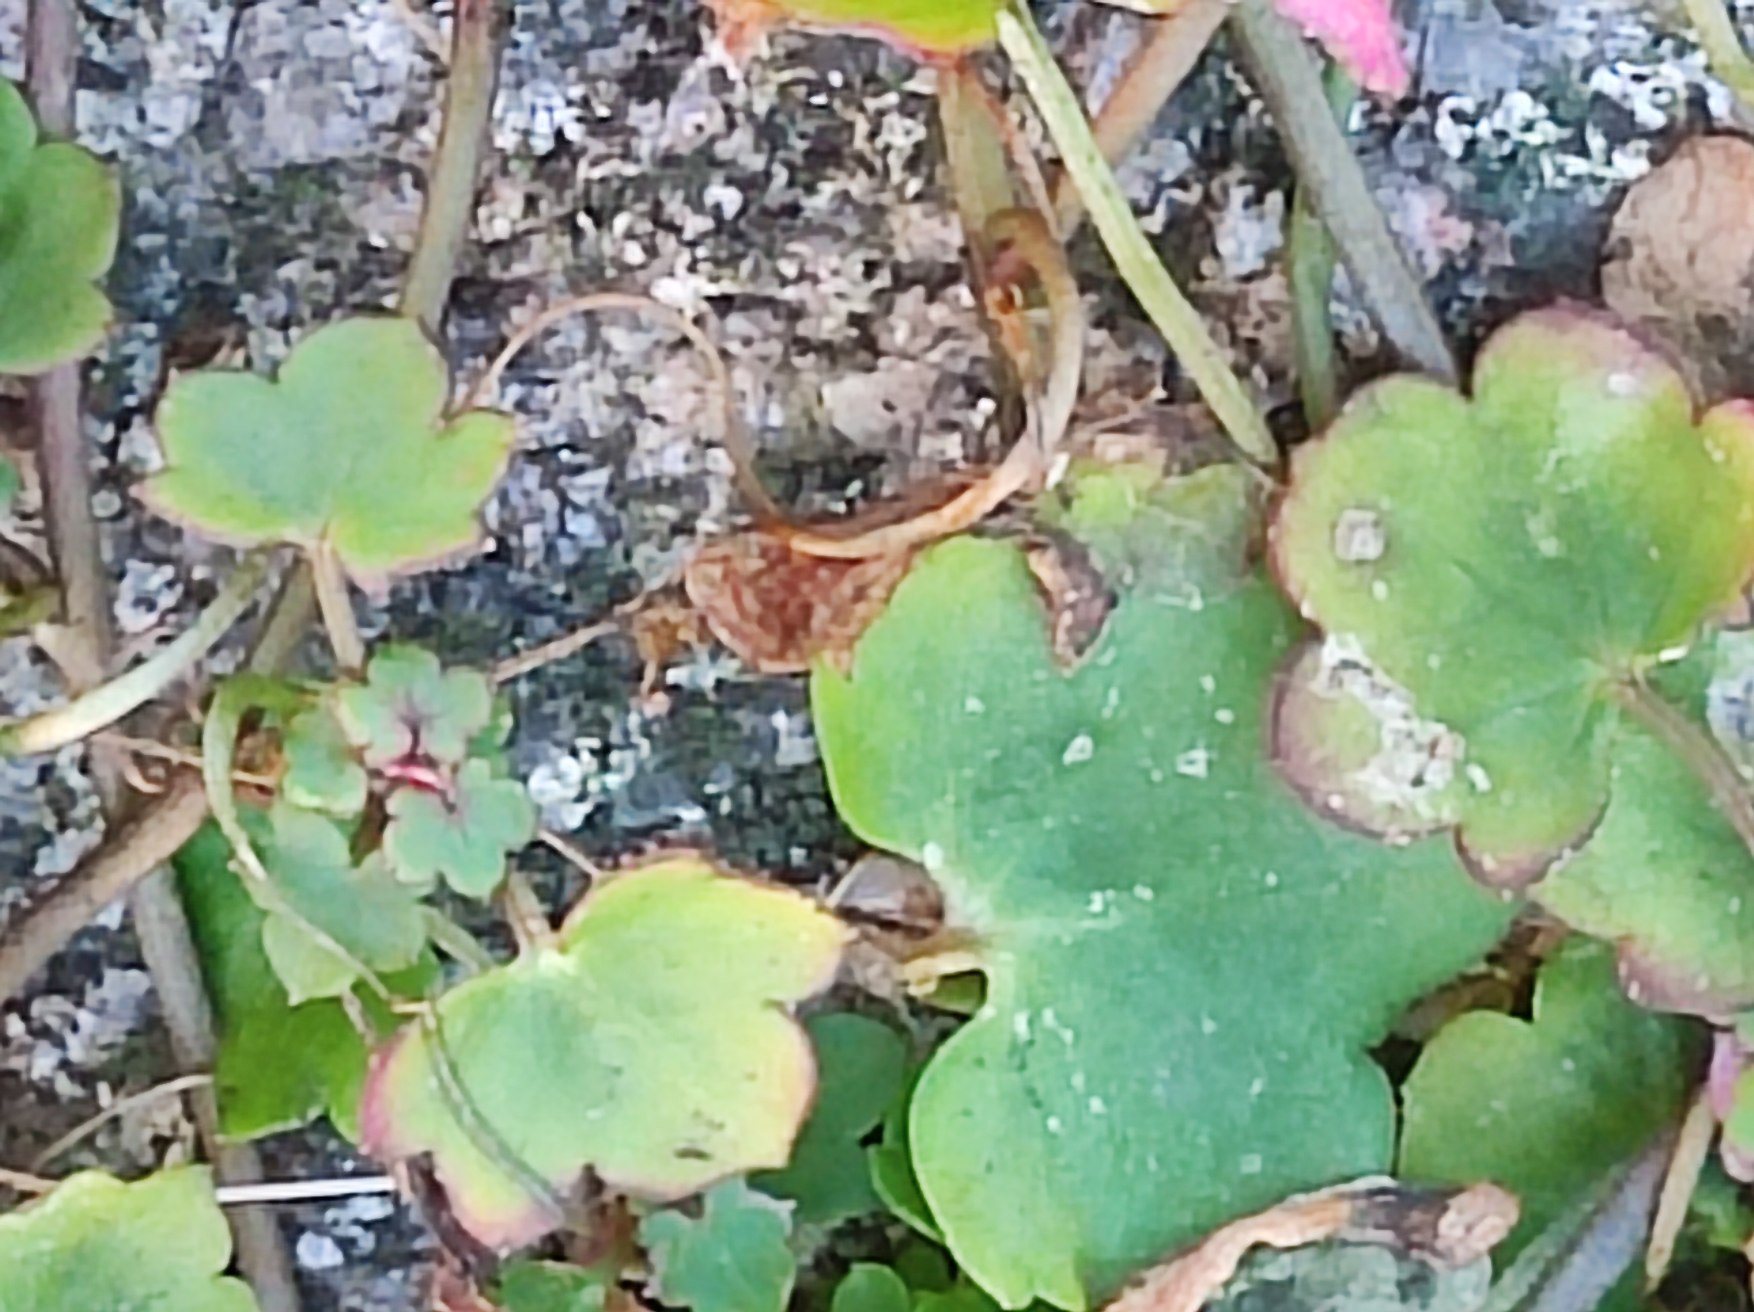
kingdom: Plantae
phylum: Tracheophyta
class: Magnoliopsida
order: Lamiales
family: Plantaginaceae
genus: Cymbalaria
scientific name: Cymbalaria muralis
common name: Vedbend-torskemund
